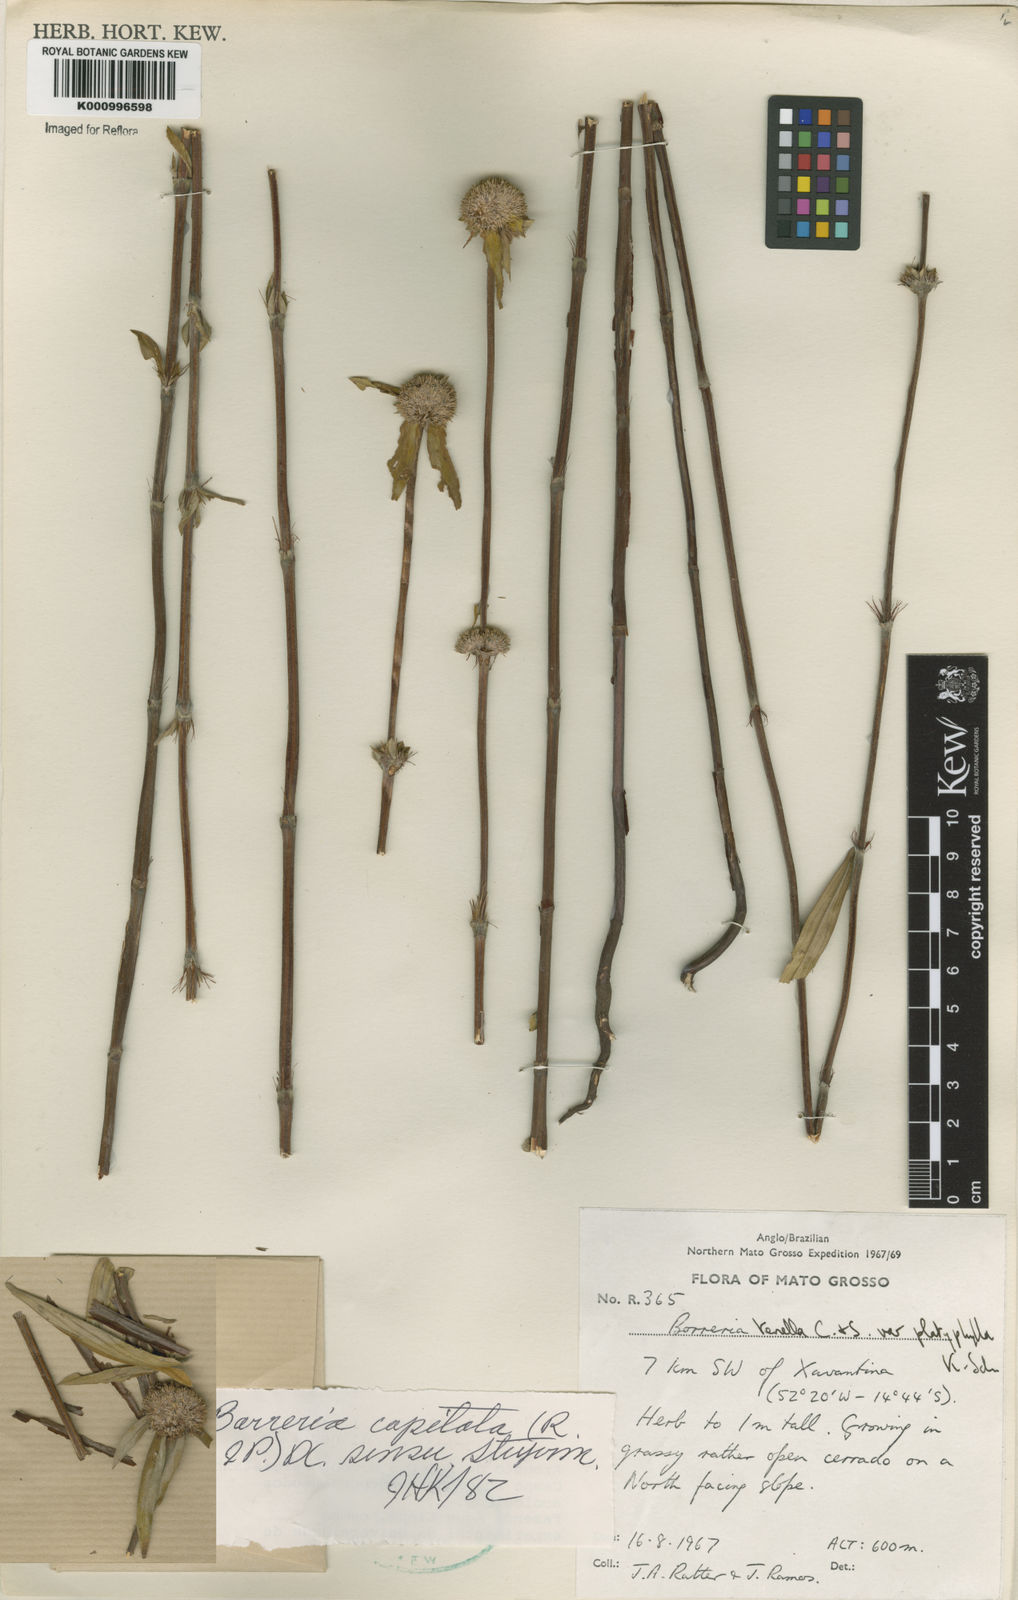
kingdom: Plantae
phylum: Tracheophyta
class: Magnoliopsida
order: Gentianales
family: Rubiaceae
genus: Spermacoce
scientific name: Spermacoce capitata
